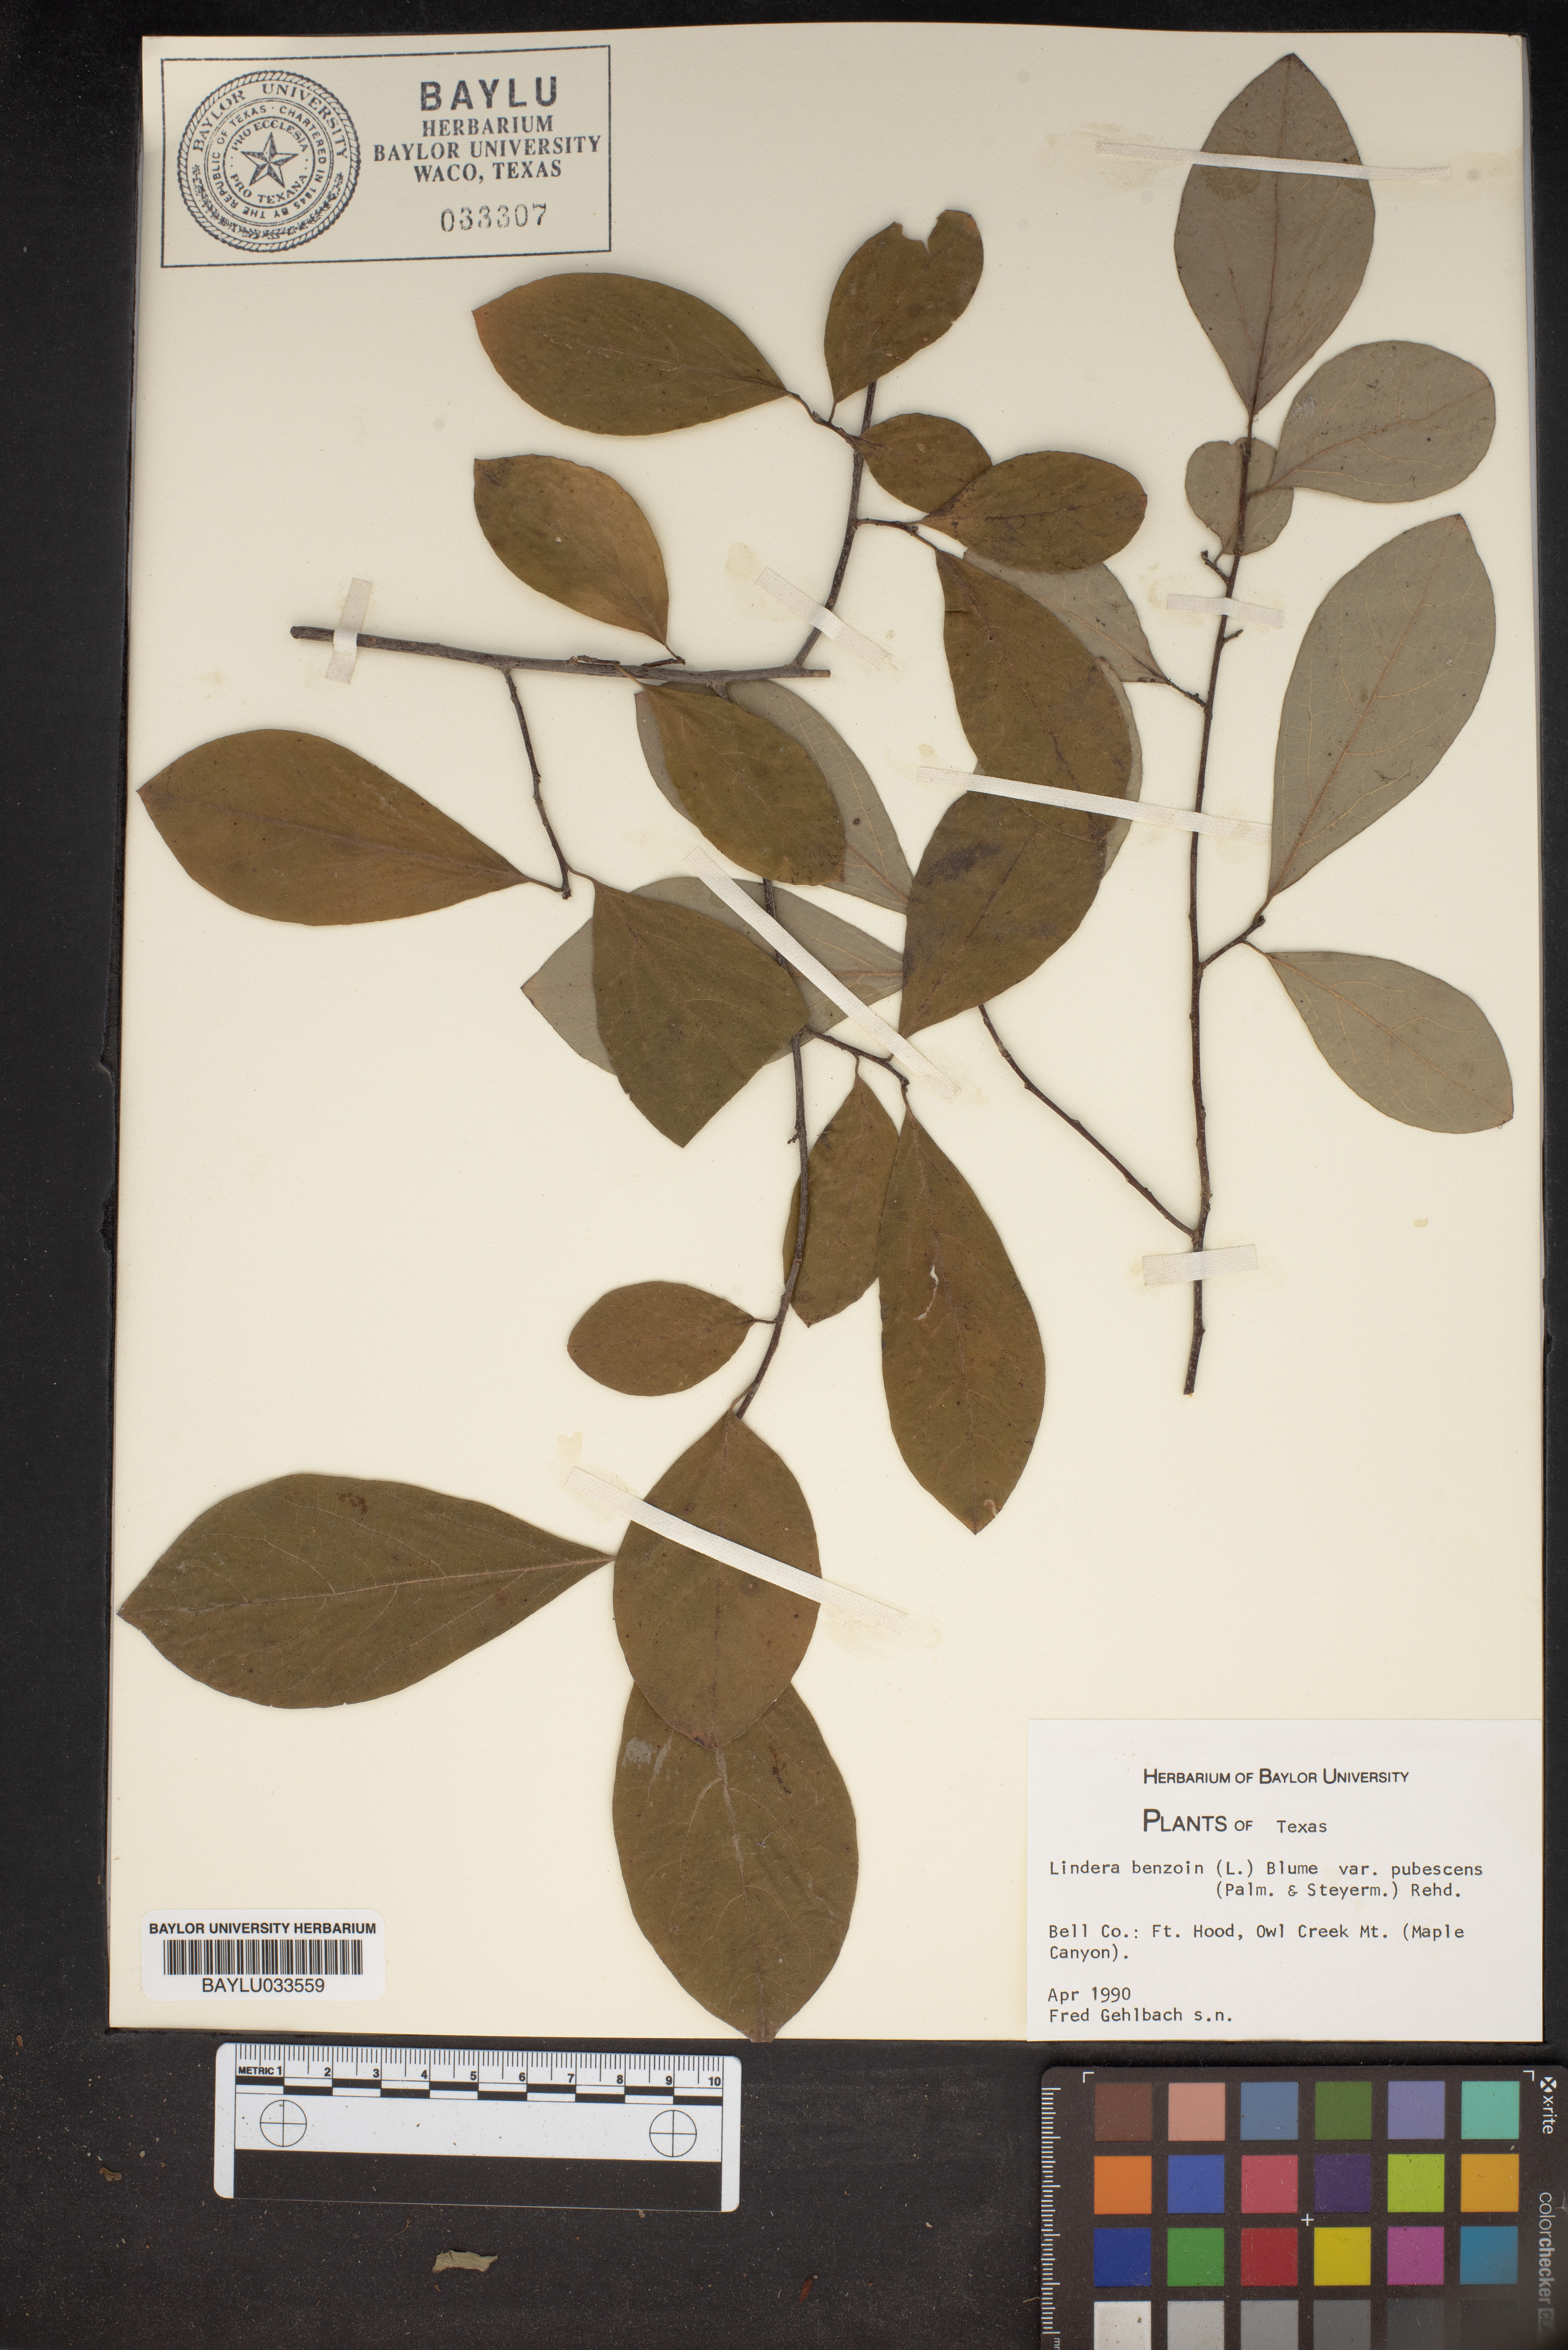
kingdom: Plantae
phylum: Tracheophyta
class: Magnoliopsida
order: Laurales
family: Lauraceae
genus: Lindera
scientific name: Lindera benzoin
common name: Spicebush
